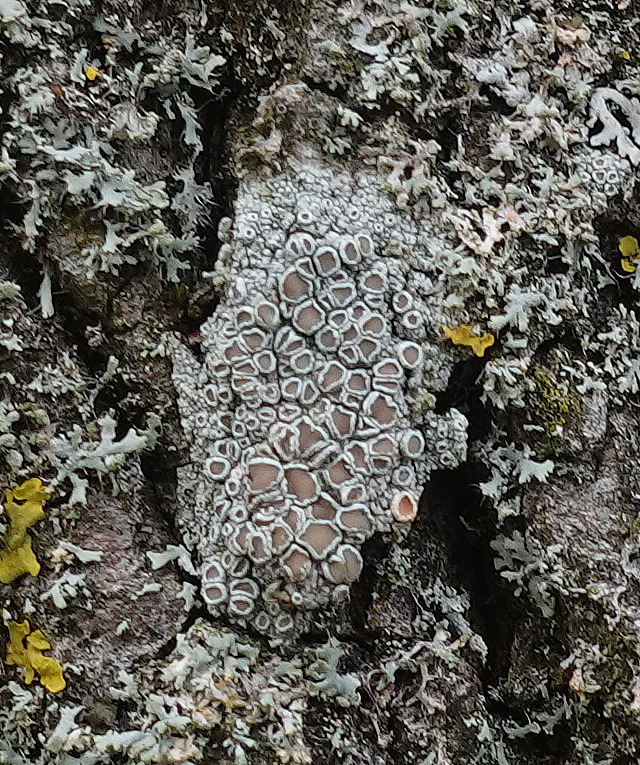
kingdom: Fungi
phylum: Ascomycota
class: Lecanoromycetes
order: Lecanorales
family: Lecanoraceae
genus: Lecanora
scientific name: Lecanora chlarotera
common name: brun kantskivelav
